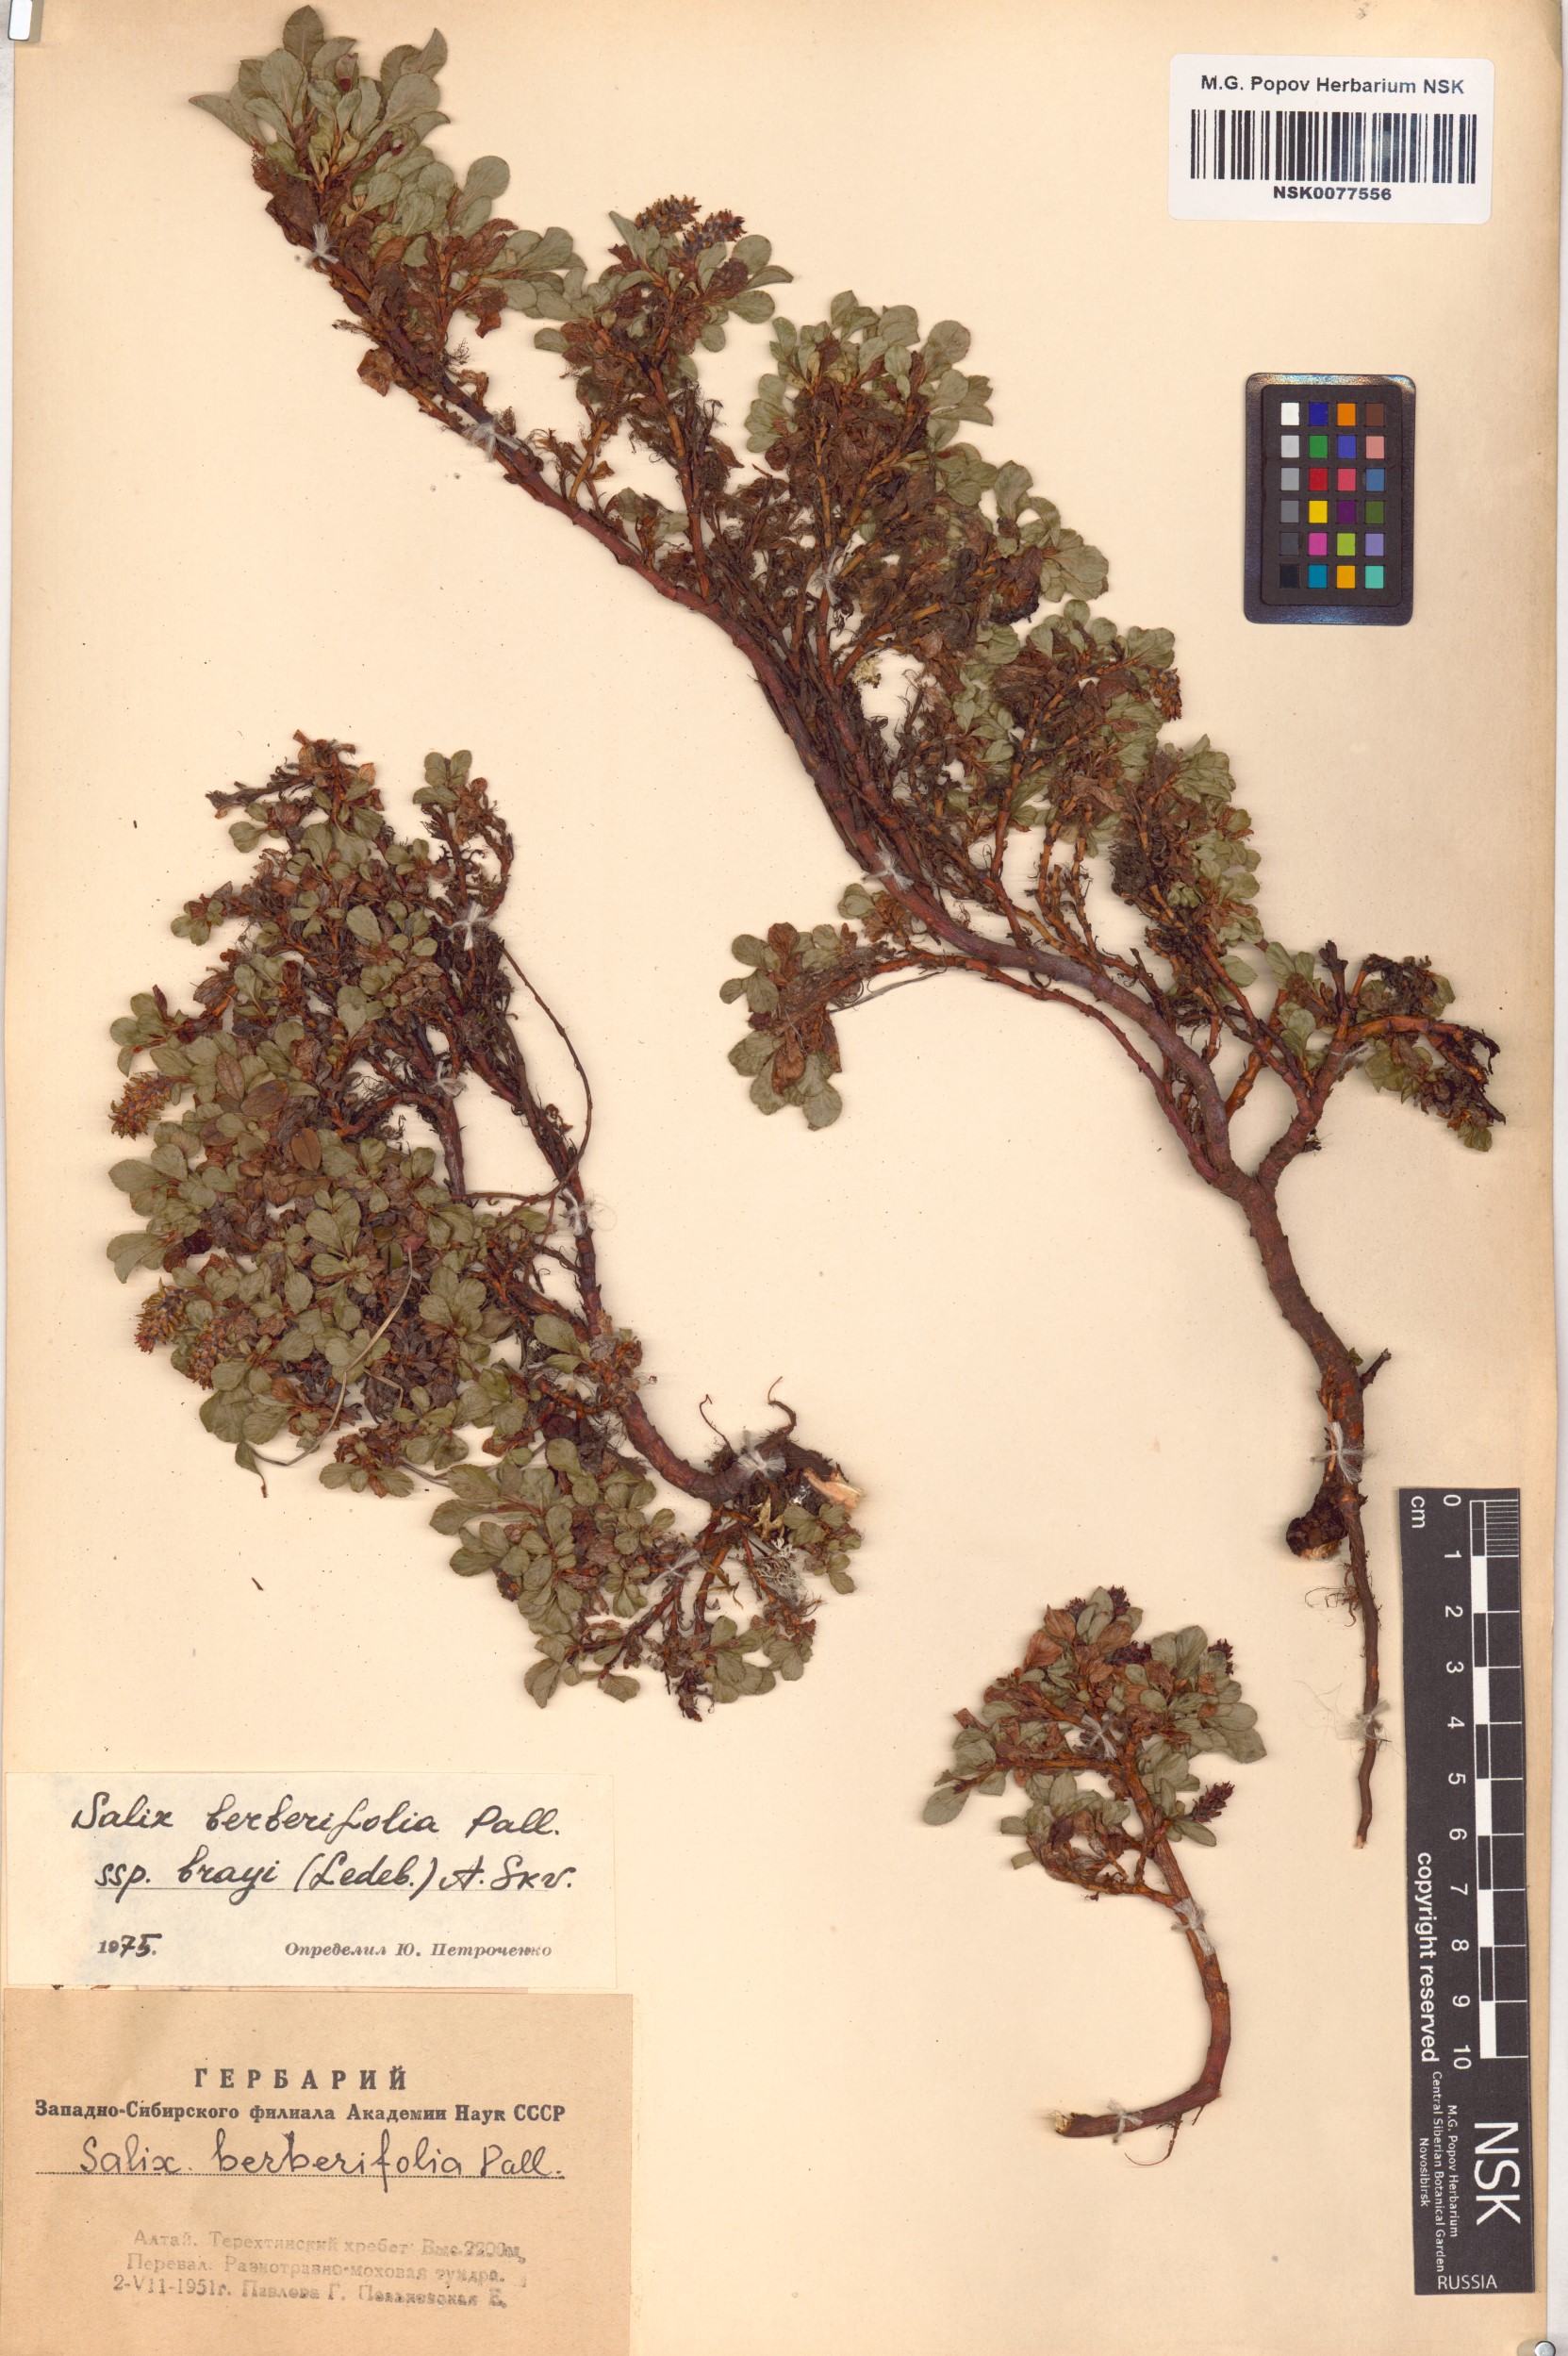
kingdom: Plantae
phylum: Tracheophyta
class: Magnoliopsida
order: Malpighiales
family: Salicaceae
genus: Salix
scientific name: Salix berberifolia
